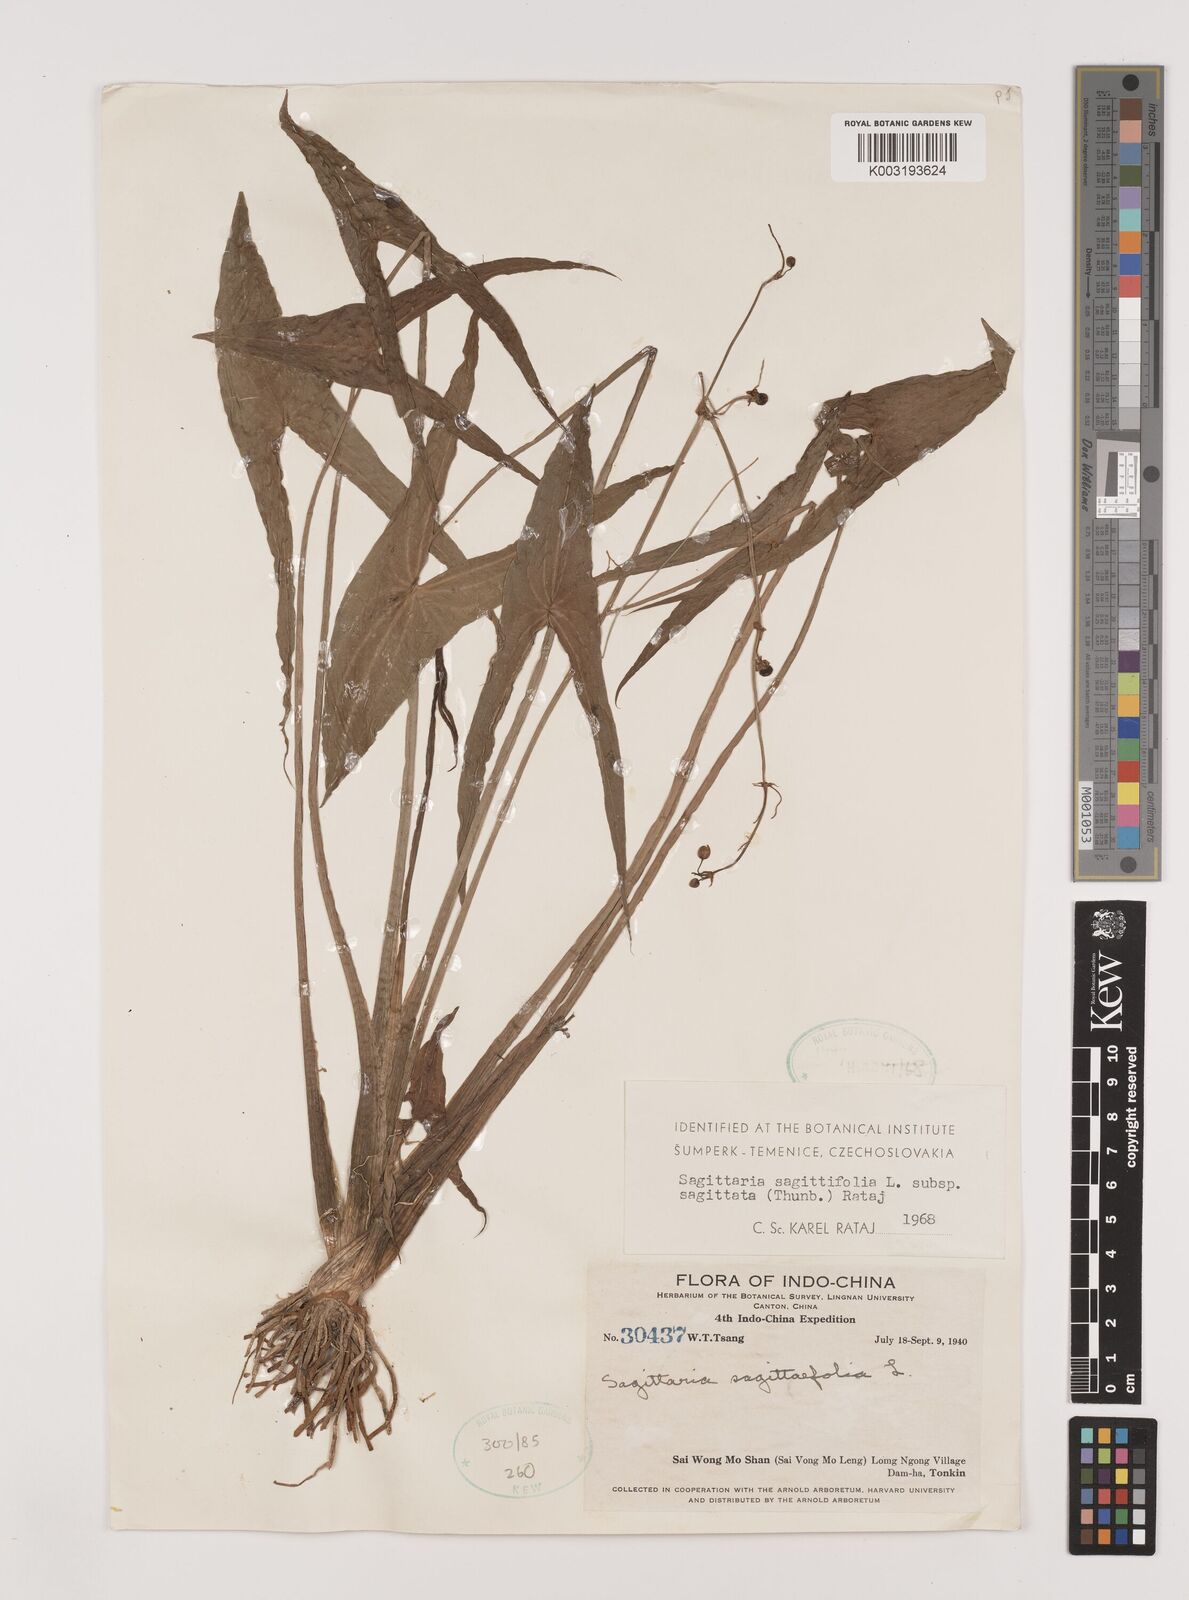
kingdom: Plantae
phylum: Tracheophyta
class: Liliopsida
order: Alismatales
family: Alismataceae
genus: Sagittaria
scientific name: Sagittaria sagittifolia
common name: Arrowhead
